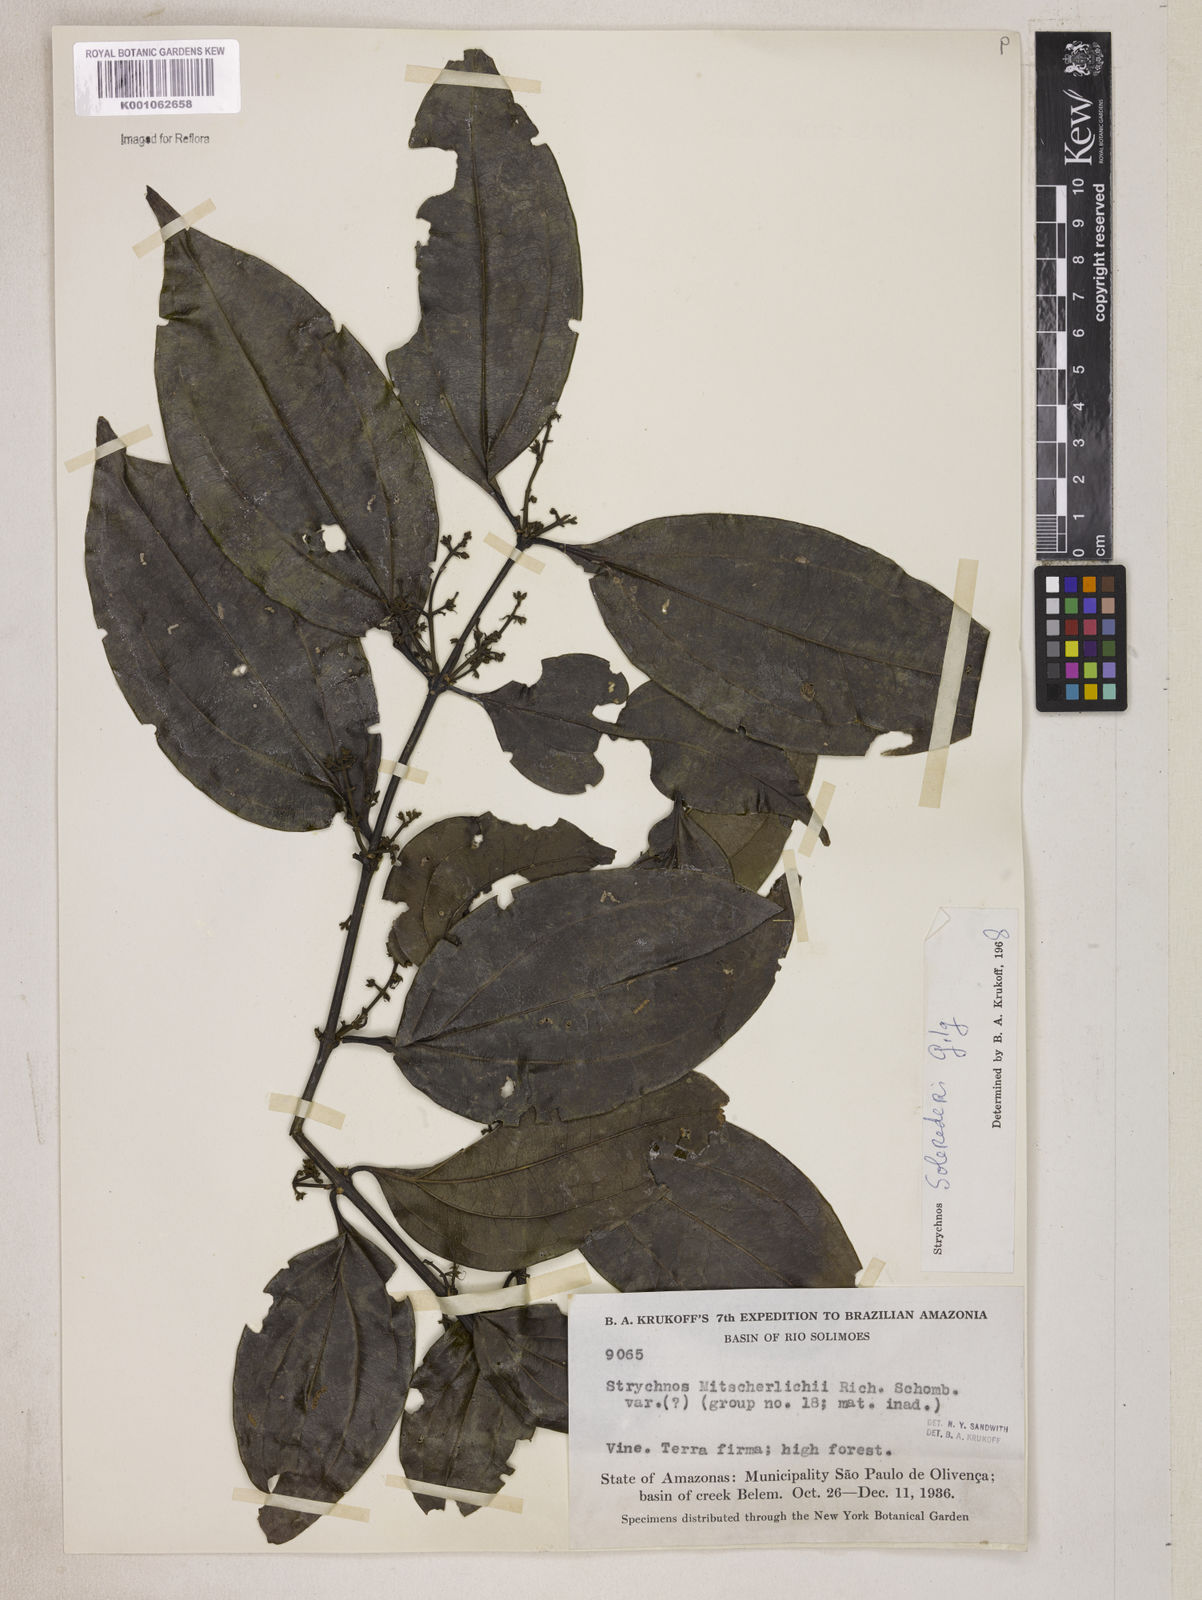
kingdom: Plantae
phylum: Tracheophyta
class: Magnoliopsida
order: Gentianales
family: Loganiaceae
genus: Strychnos
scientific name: Strychnos solerederi
